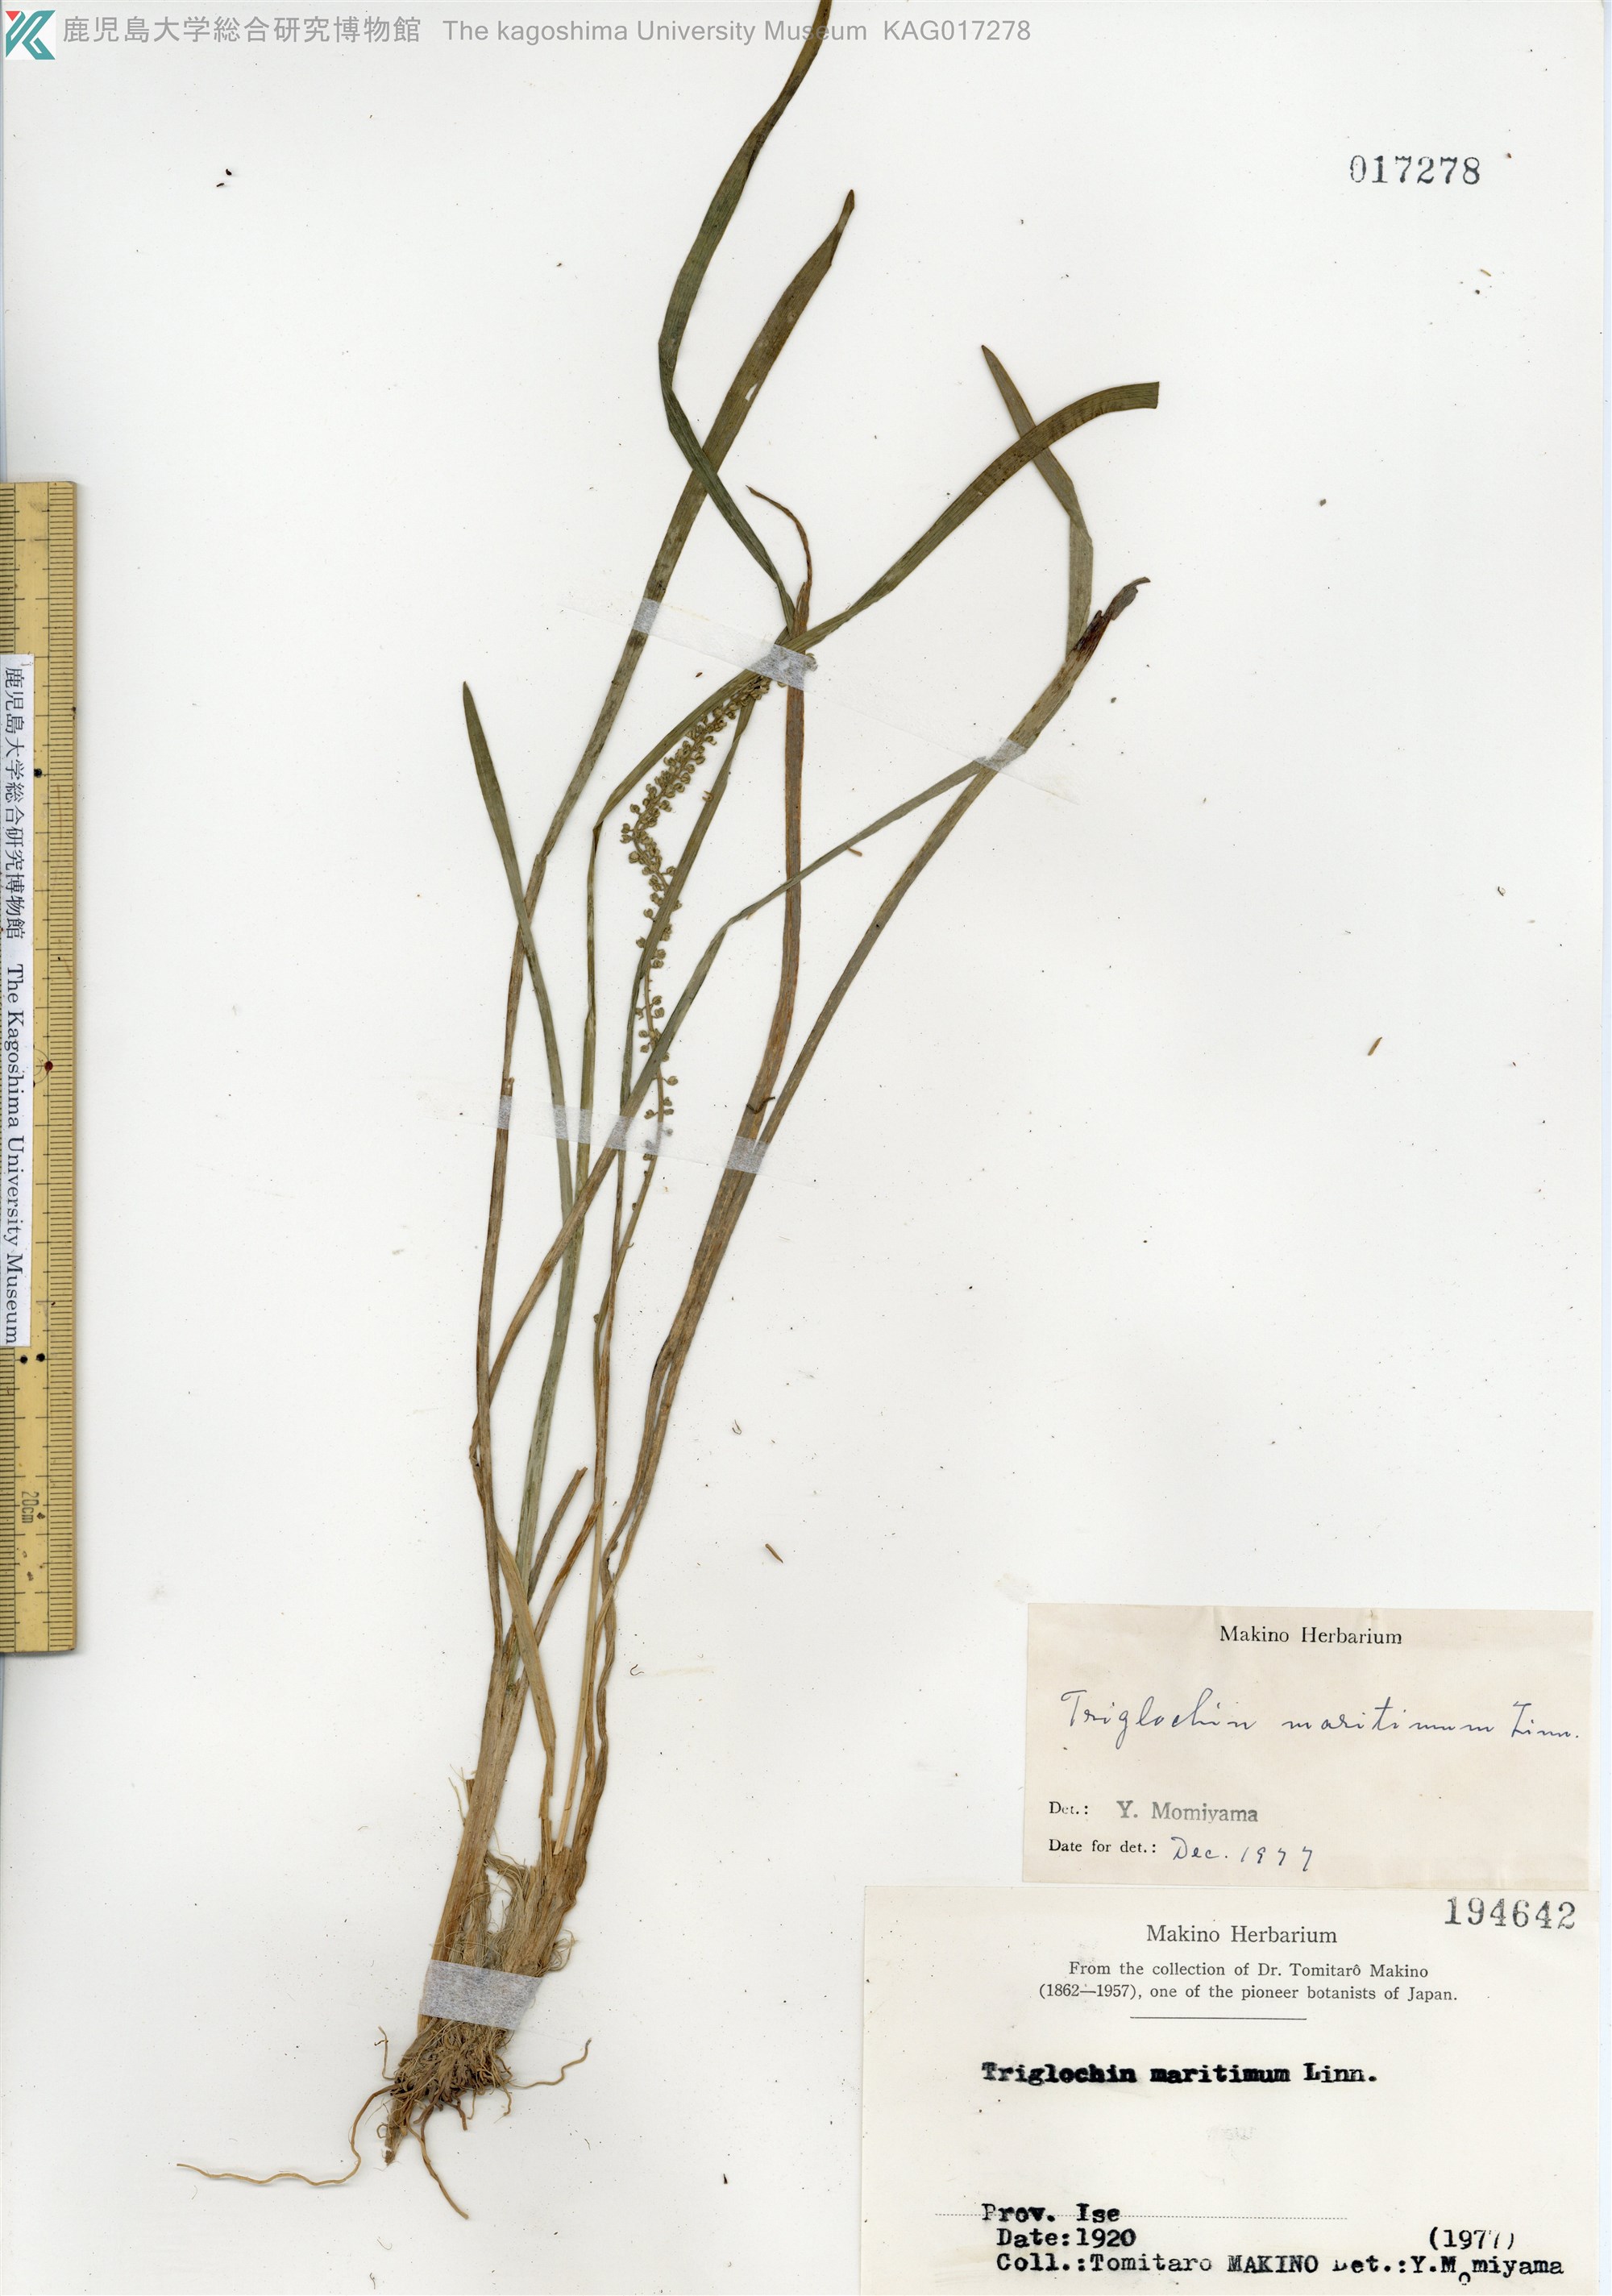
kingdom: Plantae
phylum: Tracheophyta
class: Liliopsida
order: Alismatales
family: Juncaginaceae
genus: Triglochin
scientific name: Triglochin maritima
